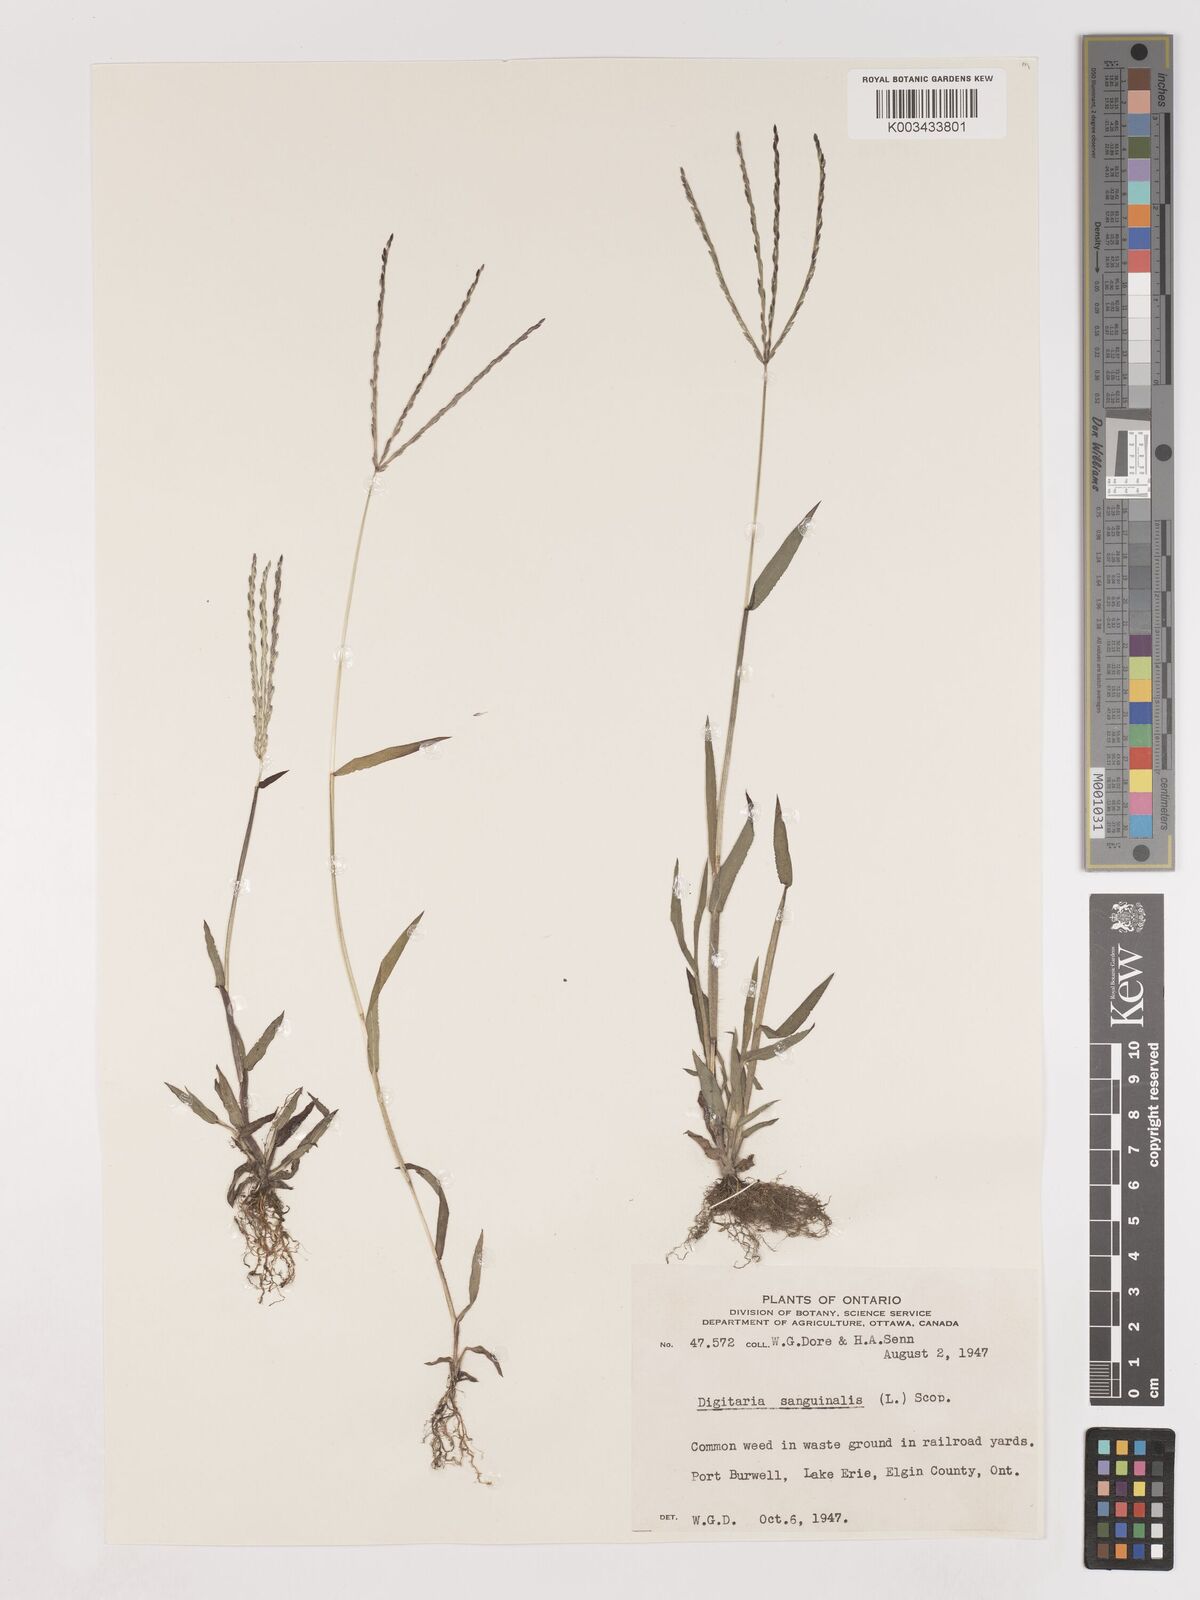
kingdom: Plantae
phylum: Tracheophyta
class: Liliopsida
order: Poales
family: Poaceae
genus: Digitaria
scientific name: Digitaria sanguinalis
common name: Hairy crabgrass
